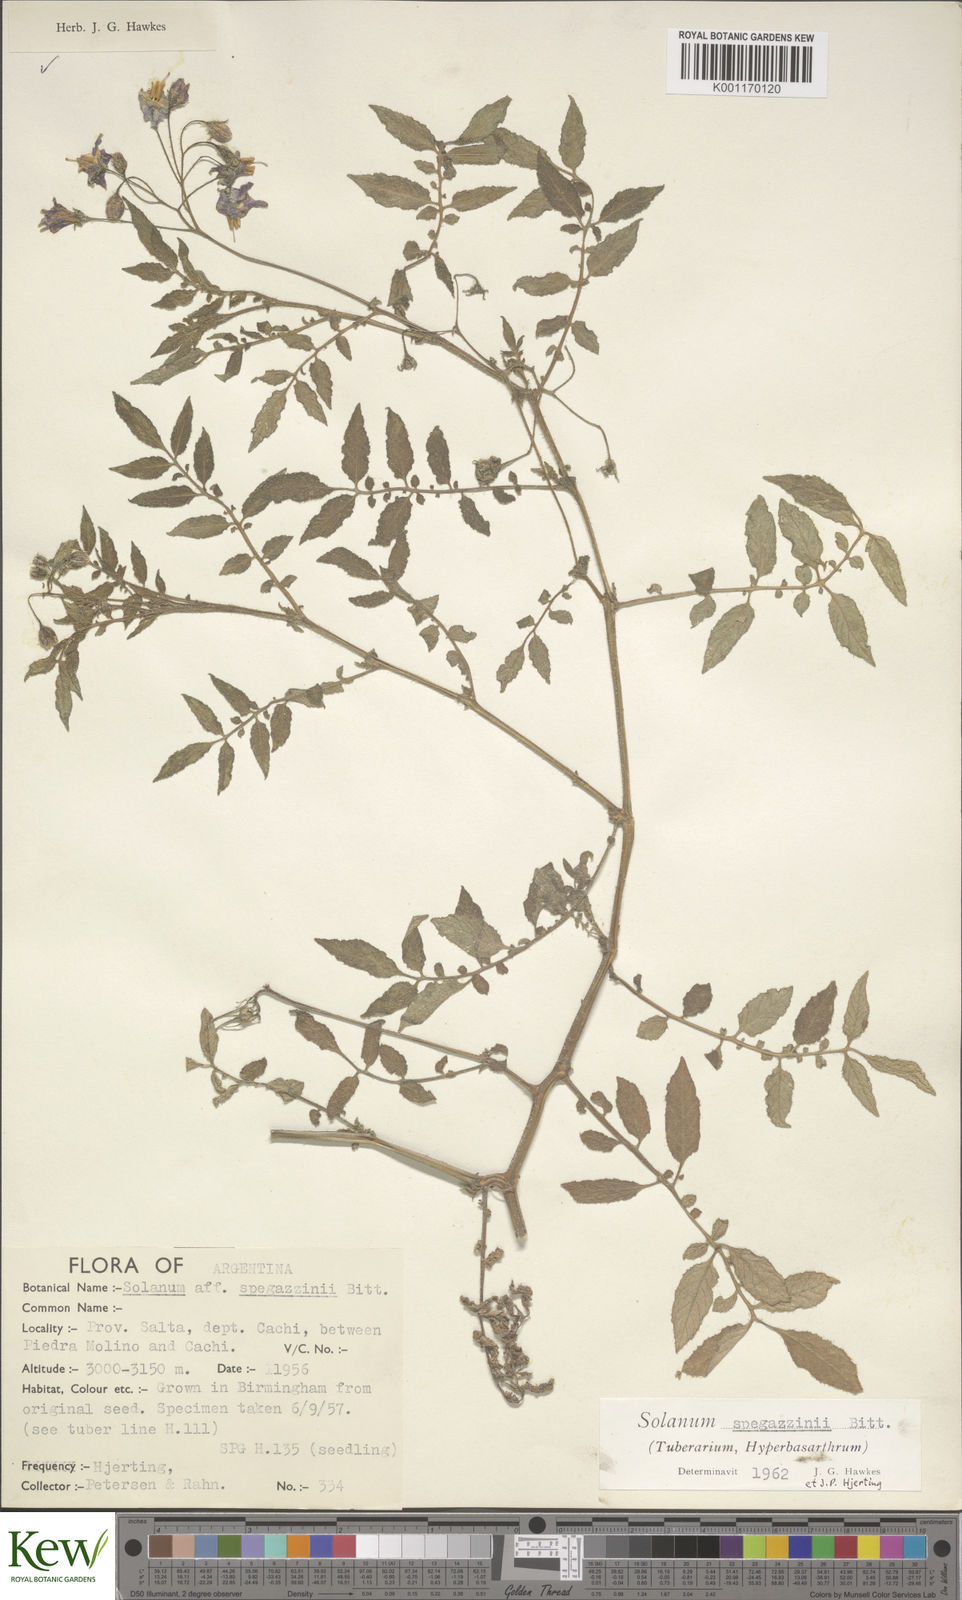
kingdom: Plantae
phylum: Tracheophyta
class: Magnoliopsida
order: Solanales
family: Solanaceae
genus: Solanum
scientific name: Solanum brevicaule
